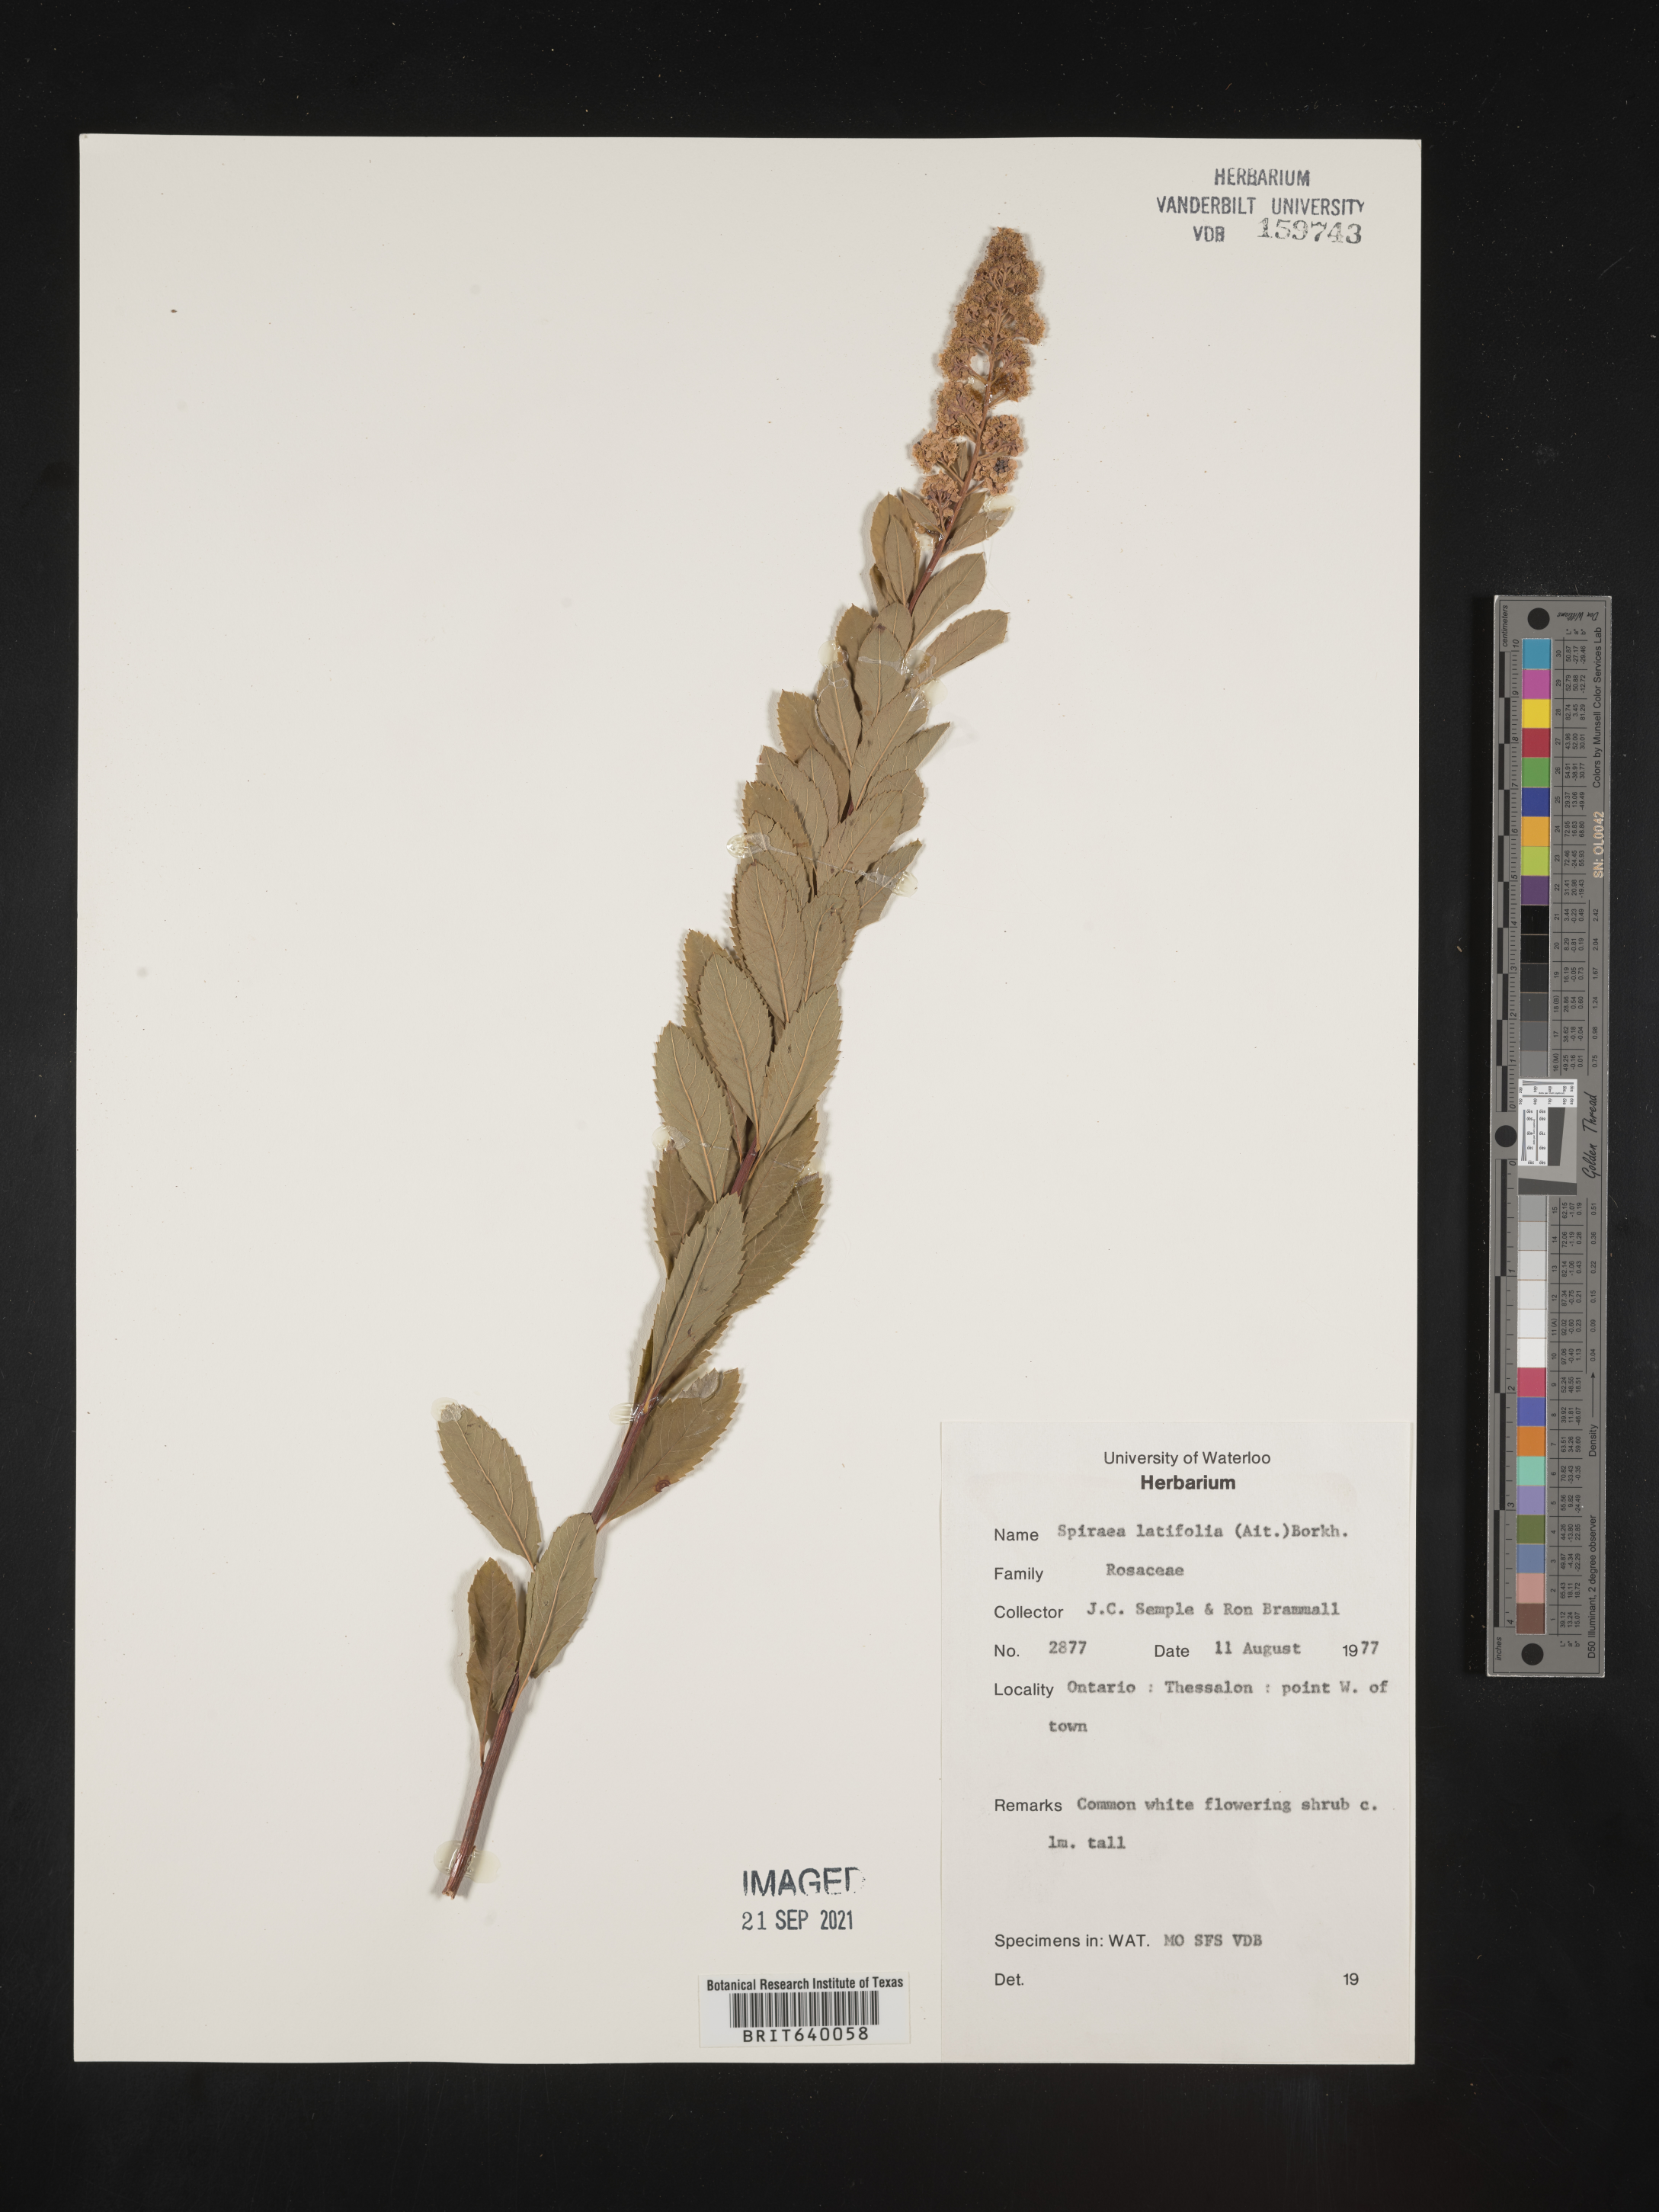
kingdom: Plantae
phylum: Tracheophyta
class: Magnoliopsida
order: Rosales
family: Rosaceae
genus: Spiraea
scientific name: Spiraea
